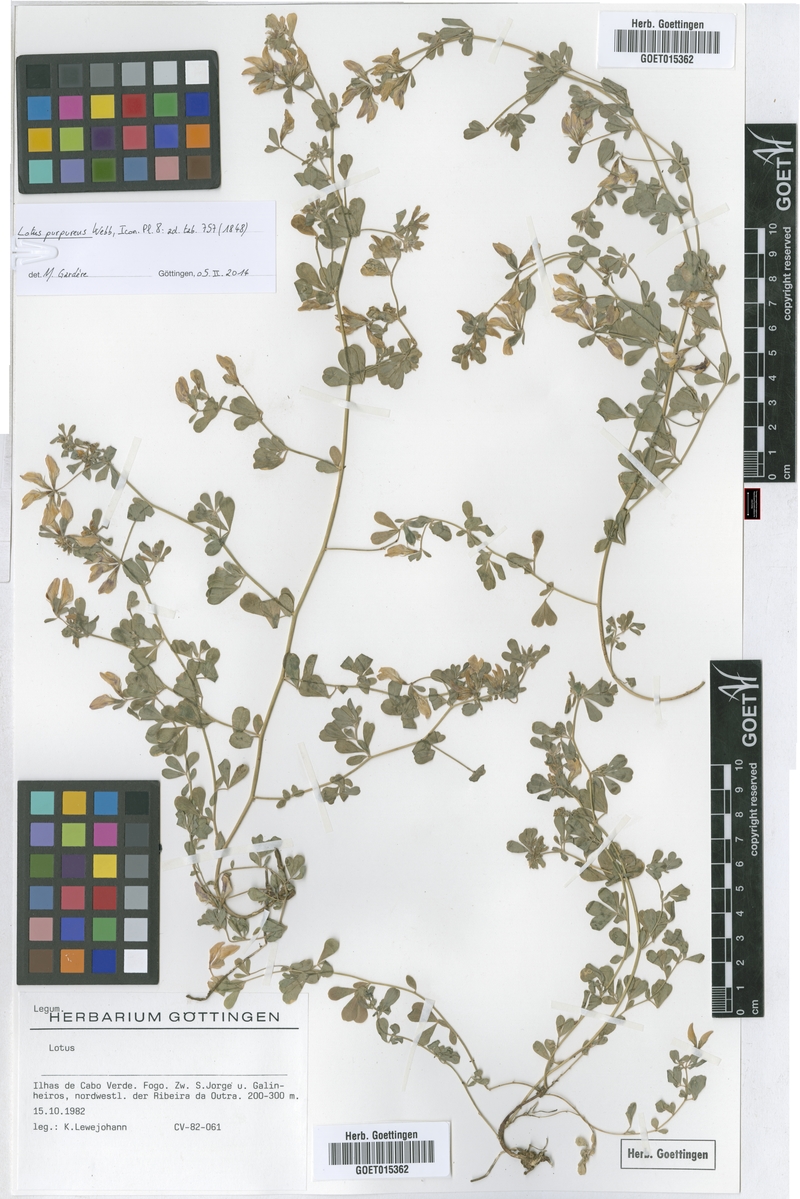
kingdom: Plantae
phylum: Tracheophyta
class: Magnoliopsida
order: Fabales
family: Fabaceae
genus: Lotus
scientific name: Lotus purpureus
